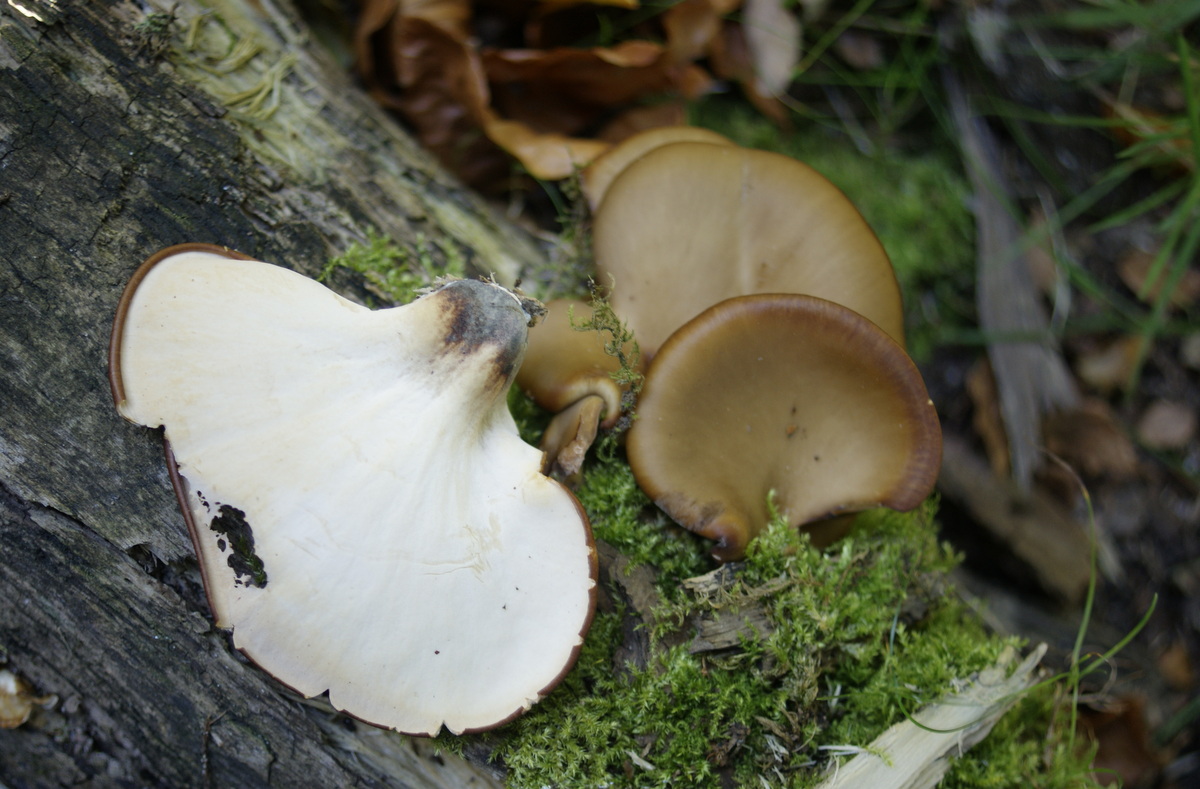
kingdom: Fungi
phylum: Basidiomycota
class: Agaricomycetes
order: Polyporales
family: Polyporaceae
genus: Picipes
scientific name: Picipes badius
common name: kastaniebrun stilkporesvamp
